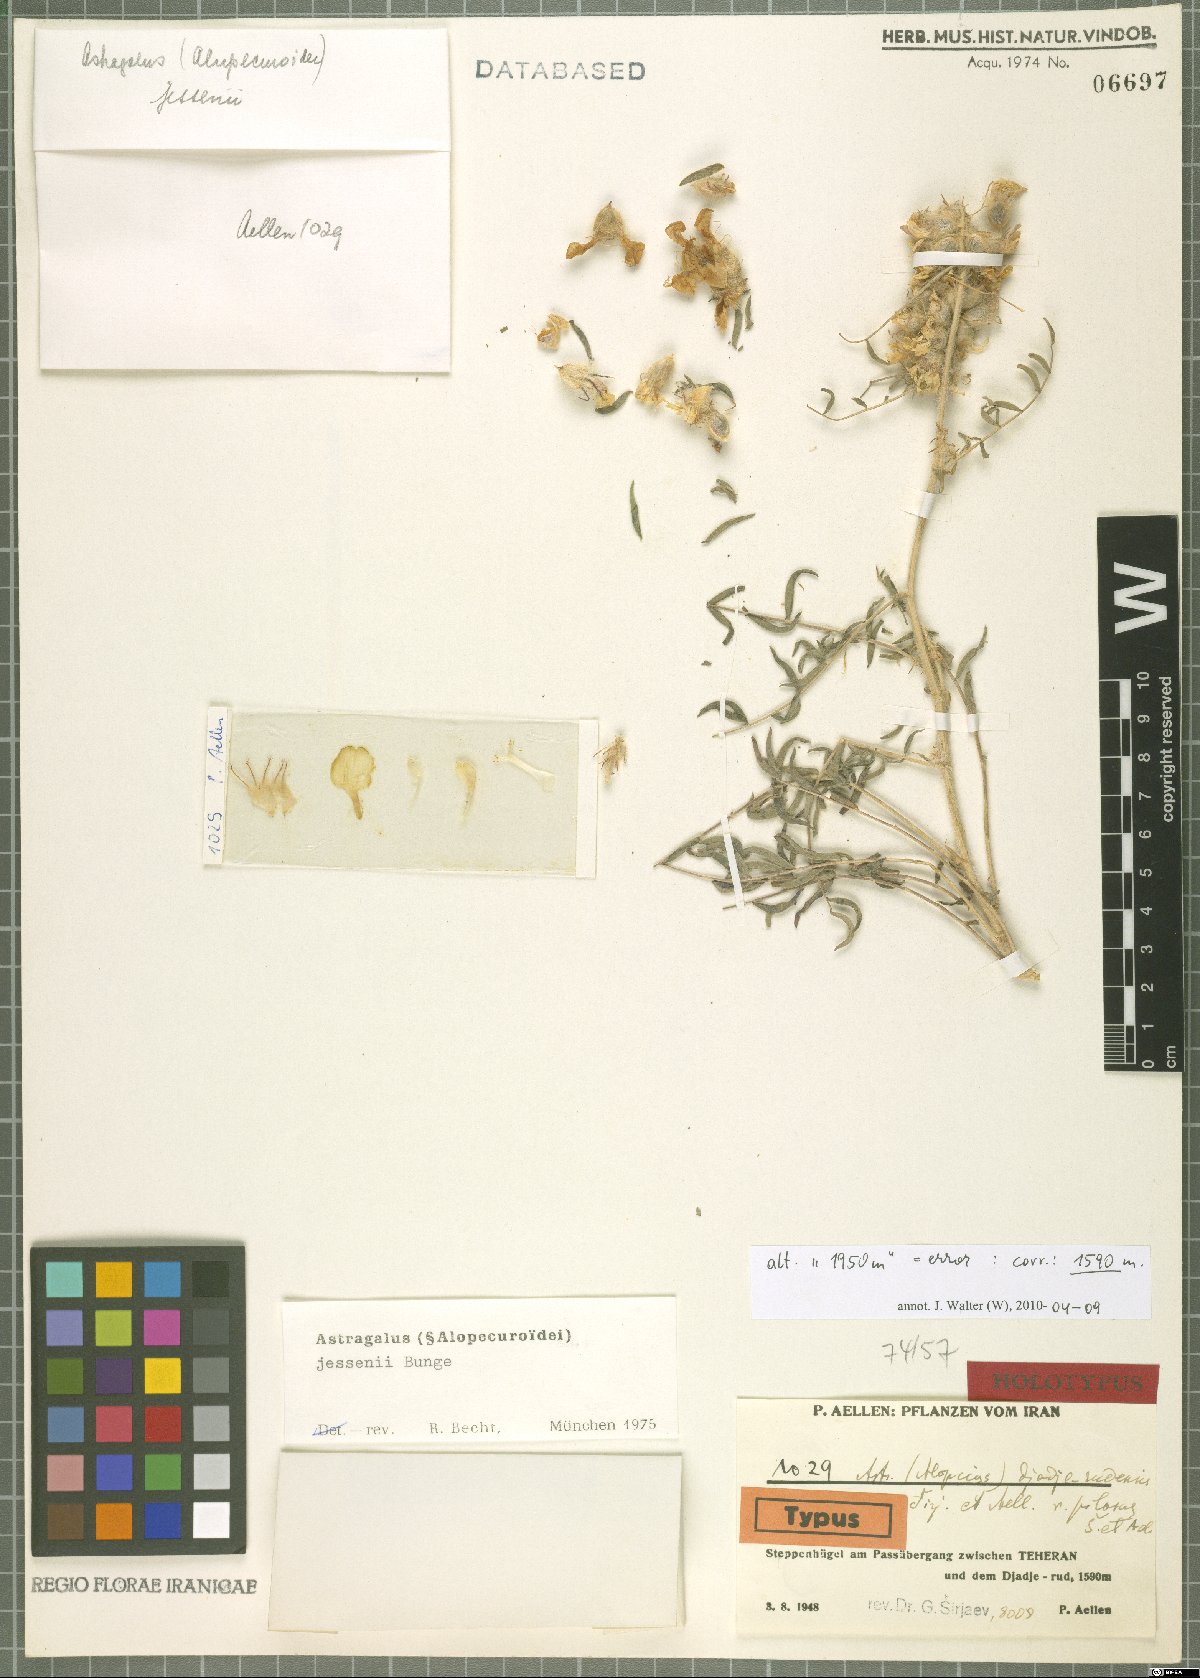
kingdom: Plantae
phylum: Tracheophyta
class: Magnoliopsida
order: Fabales
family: Fabaceae
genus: Astragalus
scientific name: Astragalus jessenii
